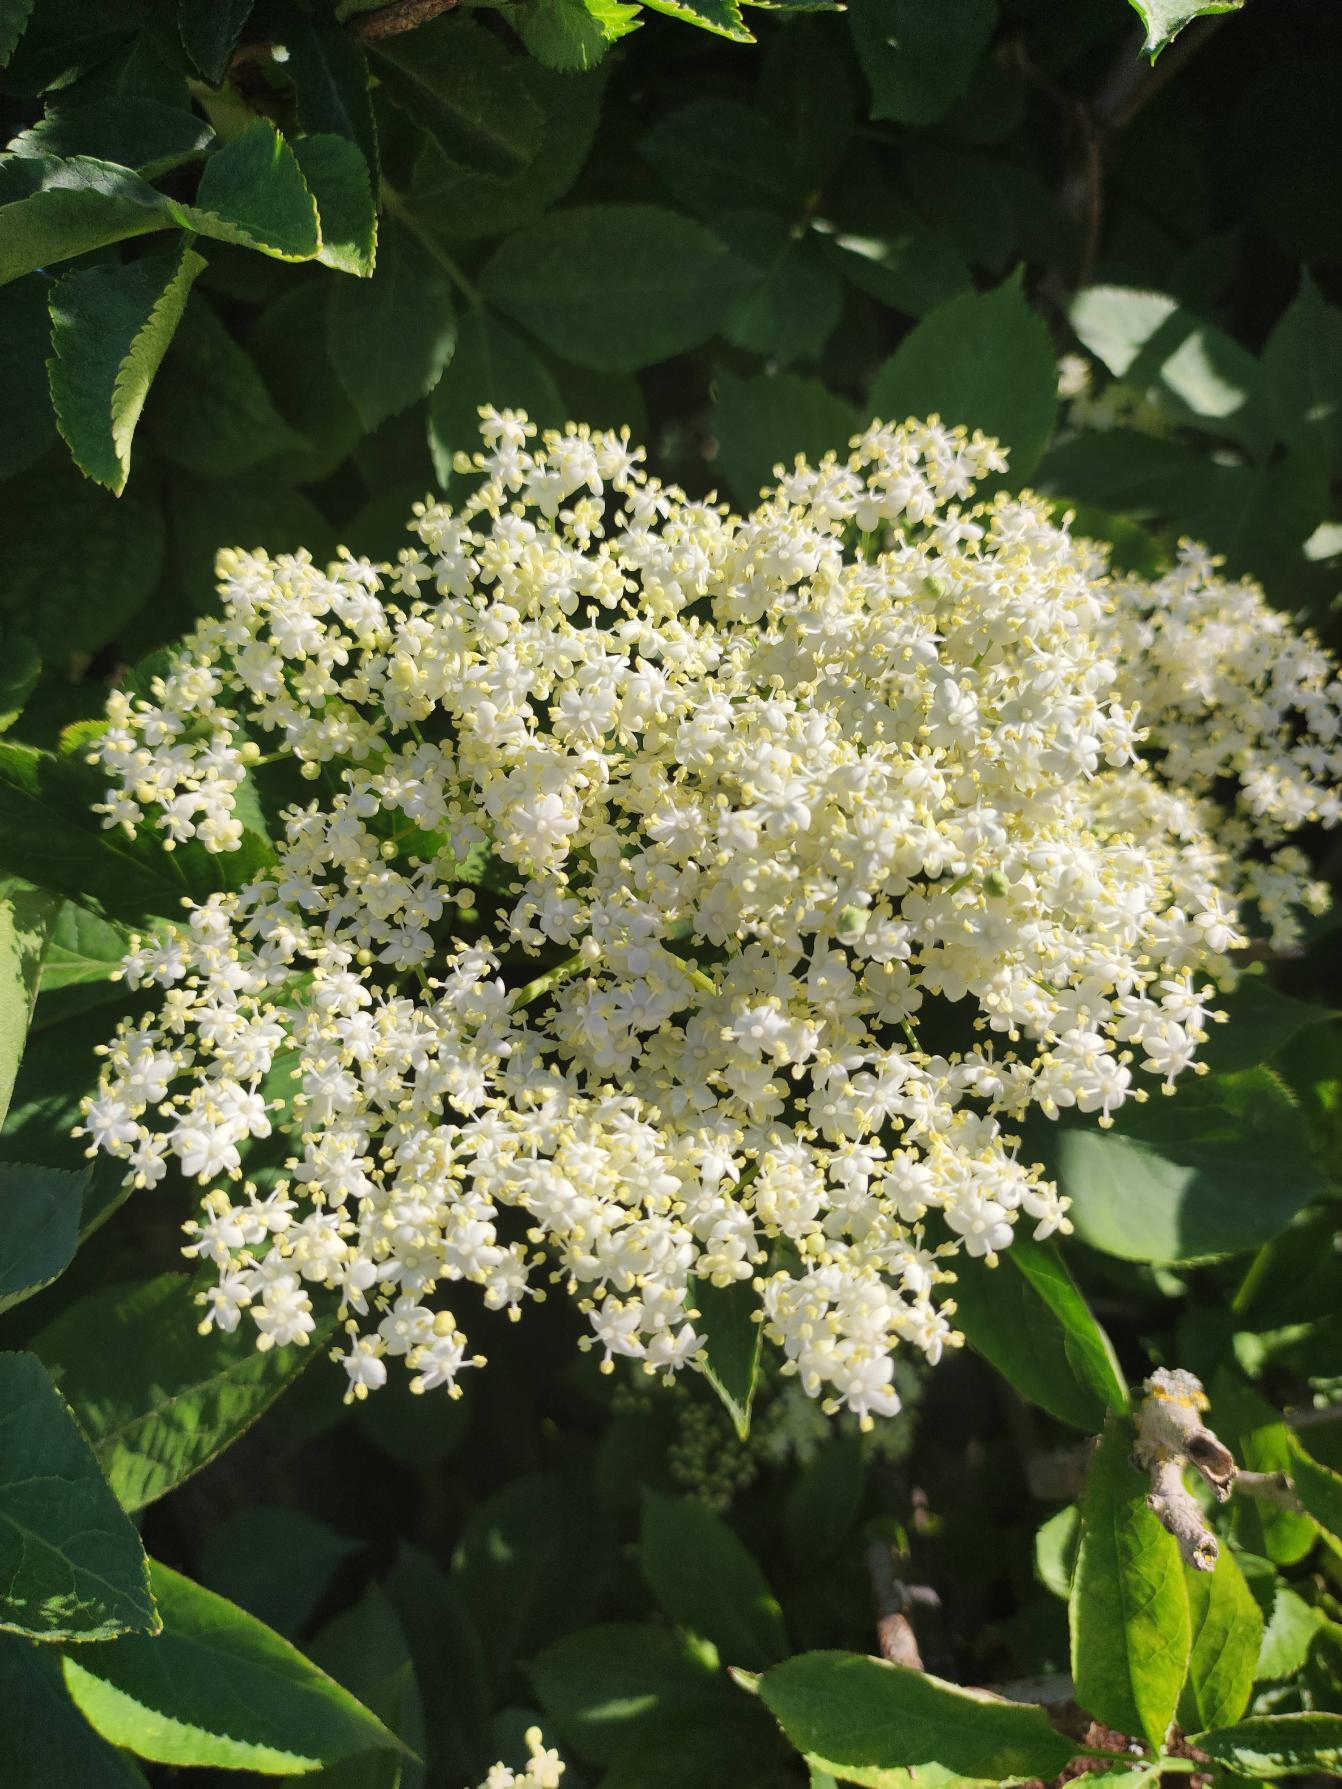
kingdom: Plantae
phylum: Tracheophyta
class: Magnoliopsida
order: Dipsacales
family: Viburnaceae
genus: Sambucus
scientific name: Sambucus nigra
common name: Almindelig hyld
